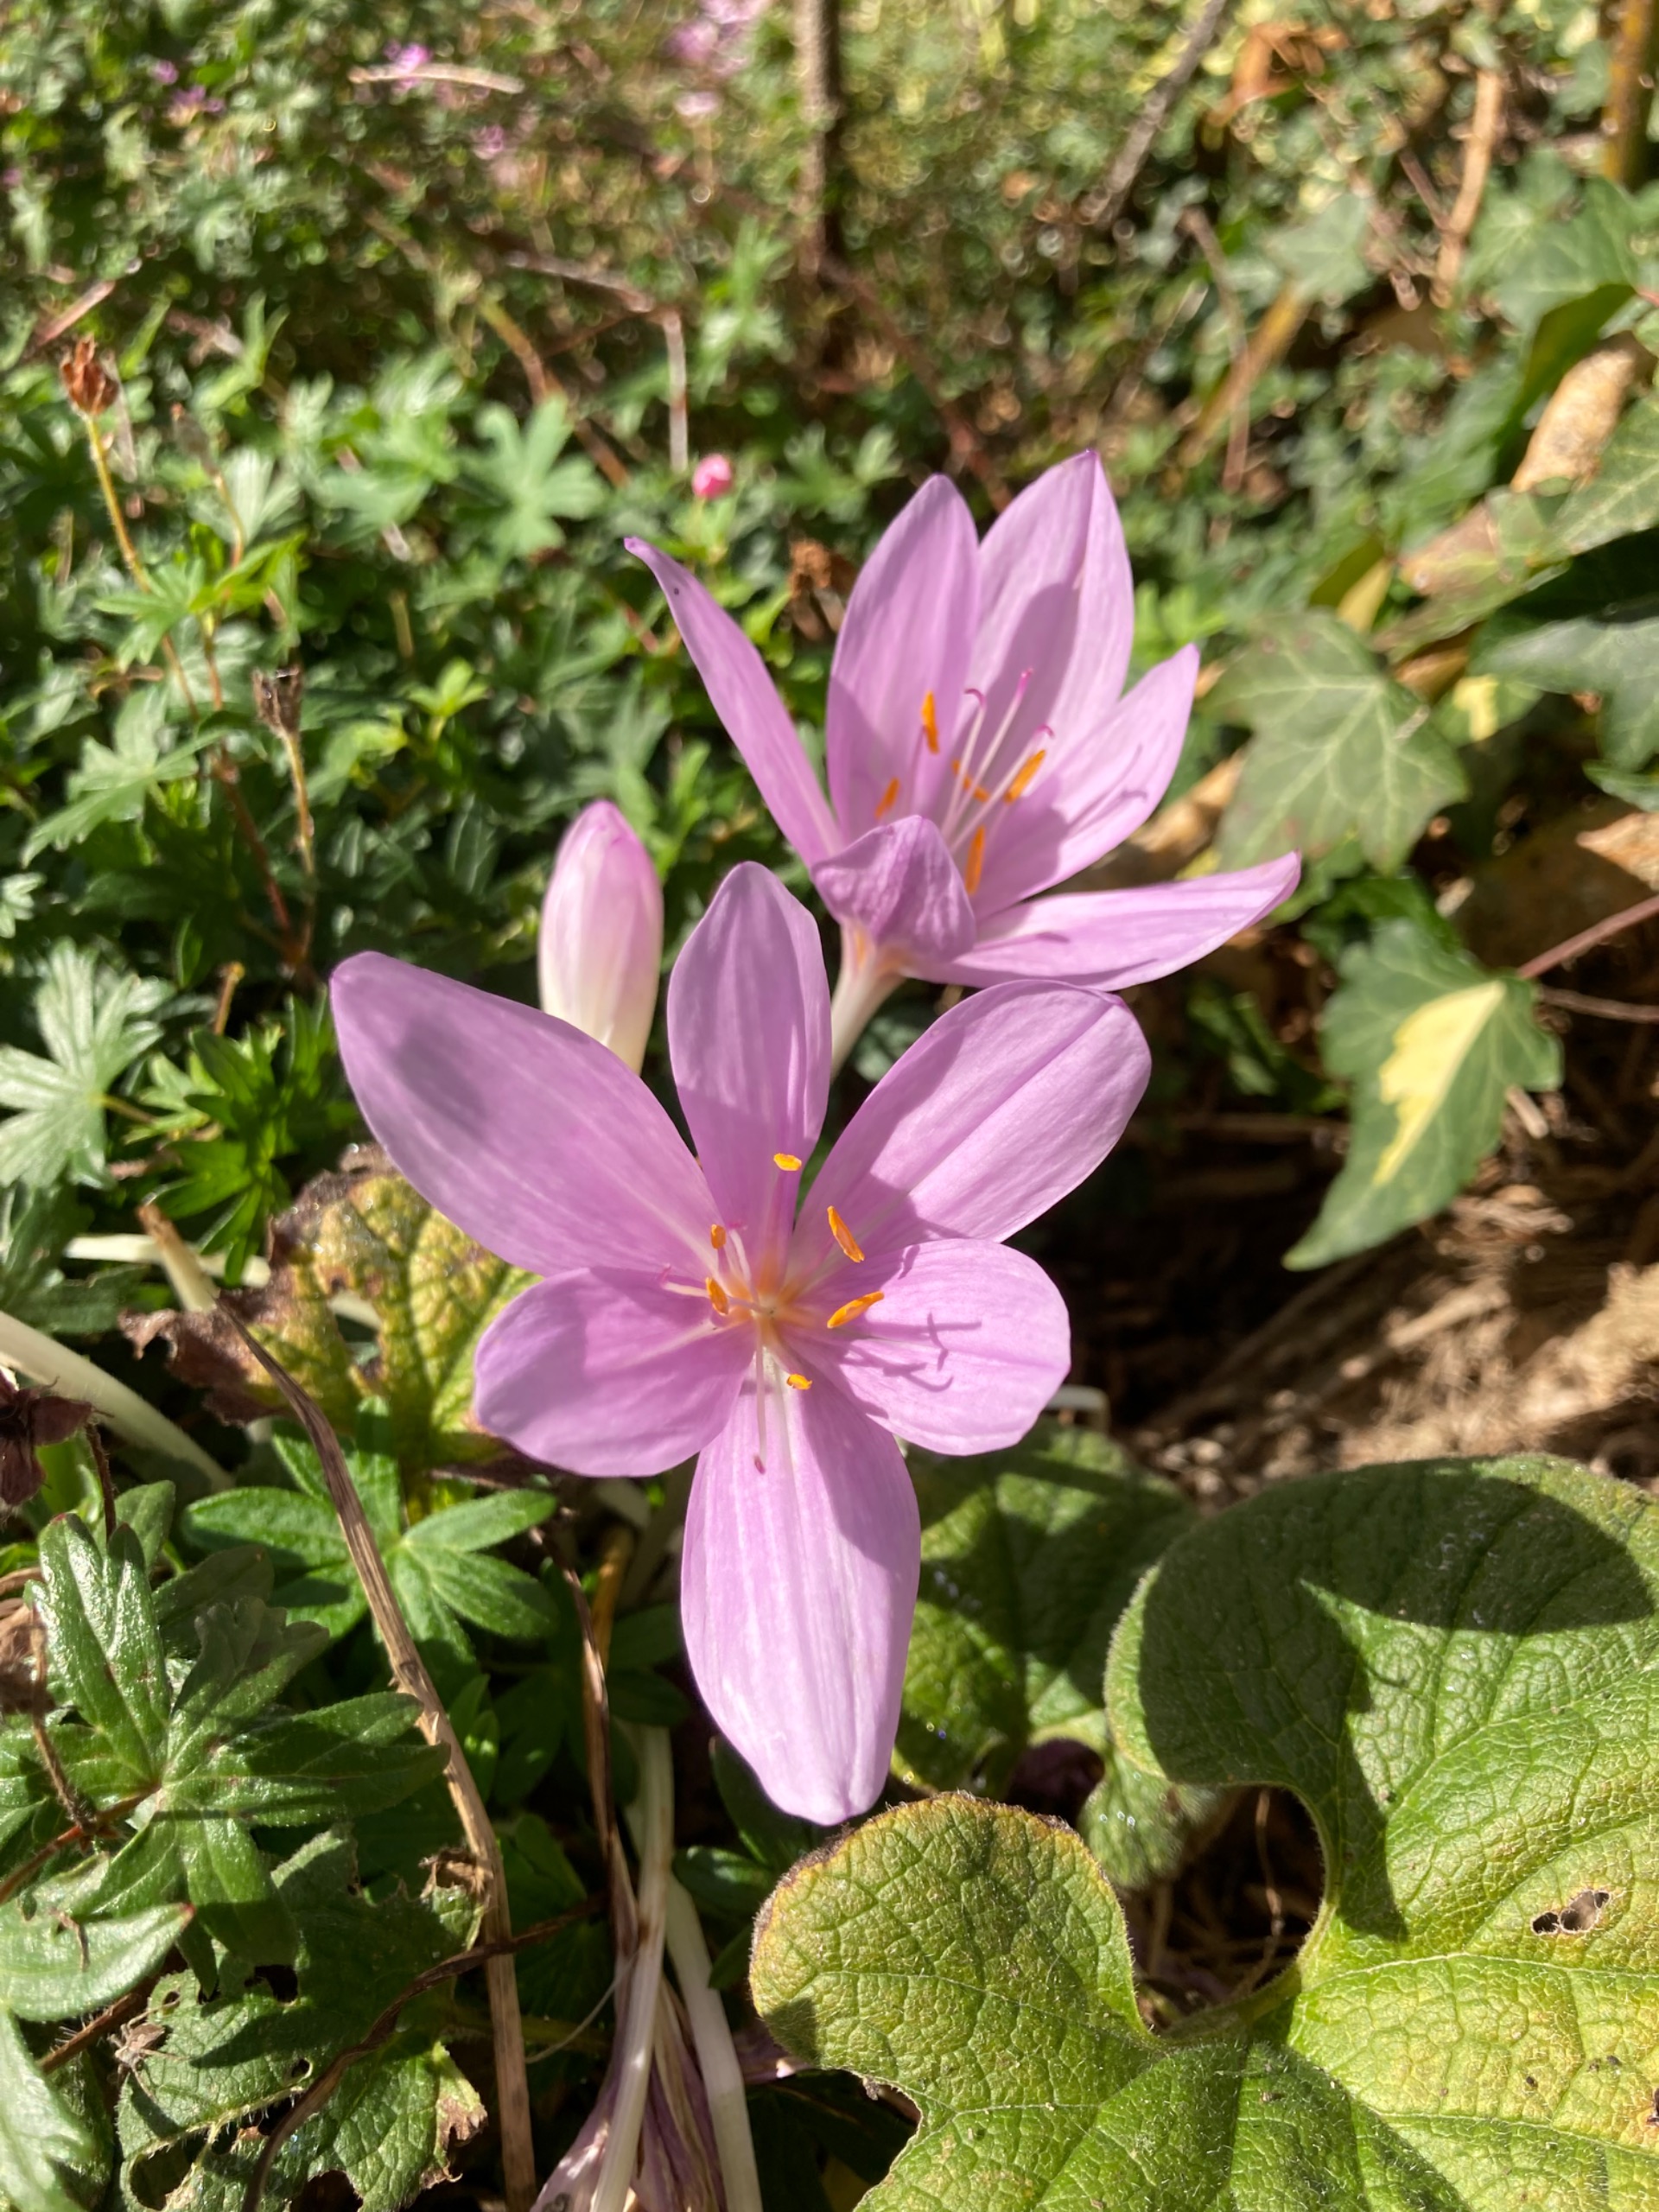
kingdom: Plantae
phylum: Tracheophyta
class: Liliopsida
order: Liliales
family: Colchicaceae
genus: Colchicum
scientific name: Colchicum autumnale
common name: Høst-tidløs
